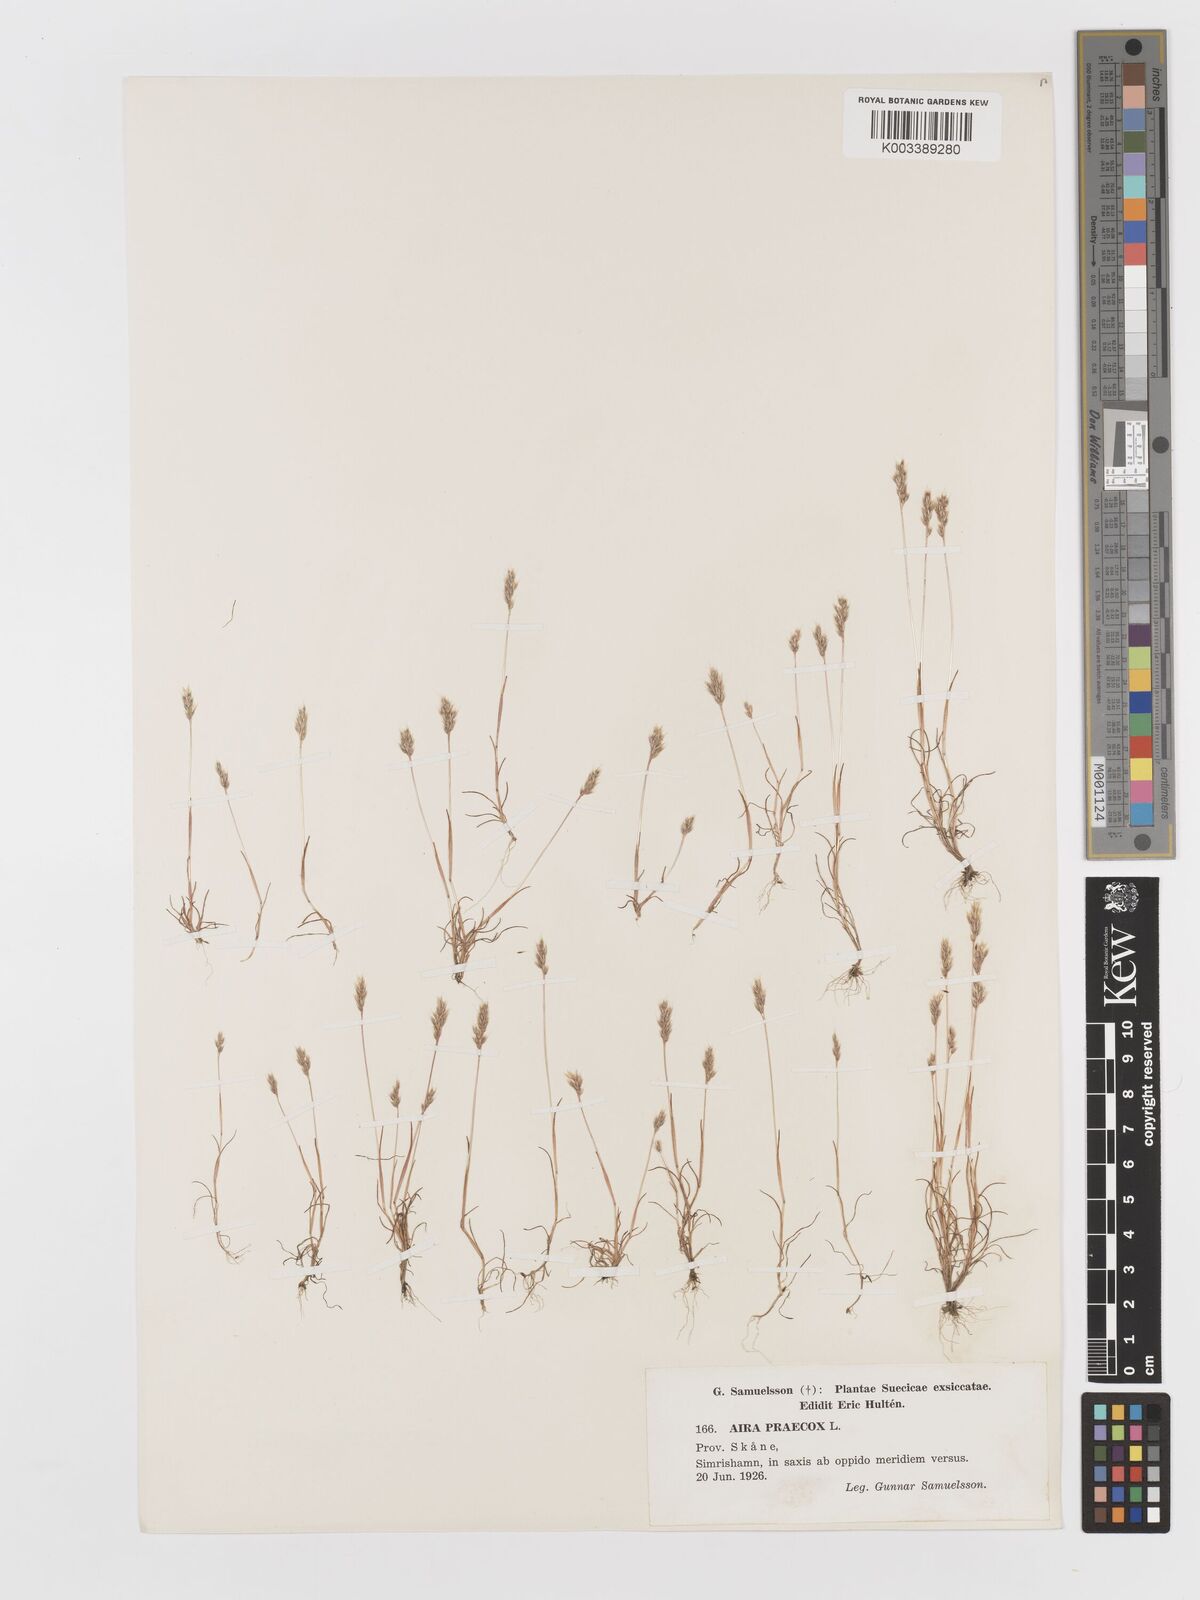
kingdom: Plantae
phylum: Tracheophyta
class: Liliopsida
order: Poales
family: Poaceae
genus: Aira
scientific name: Aira praecox
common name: Early hair-grass
